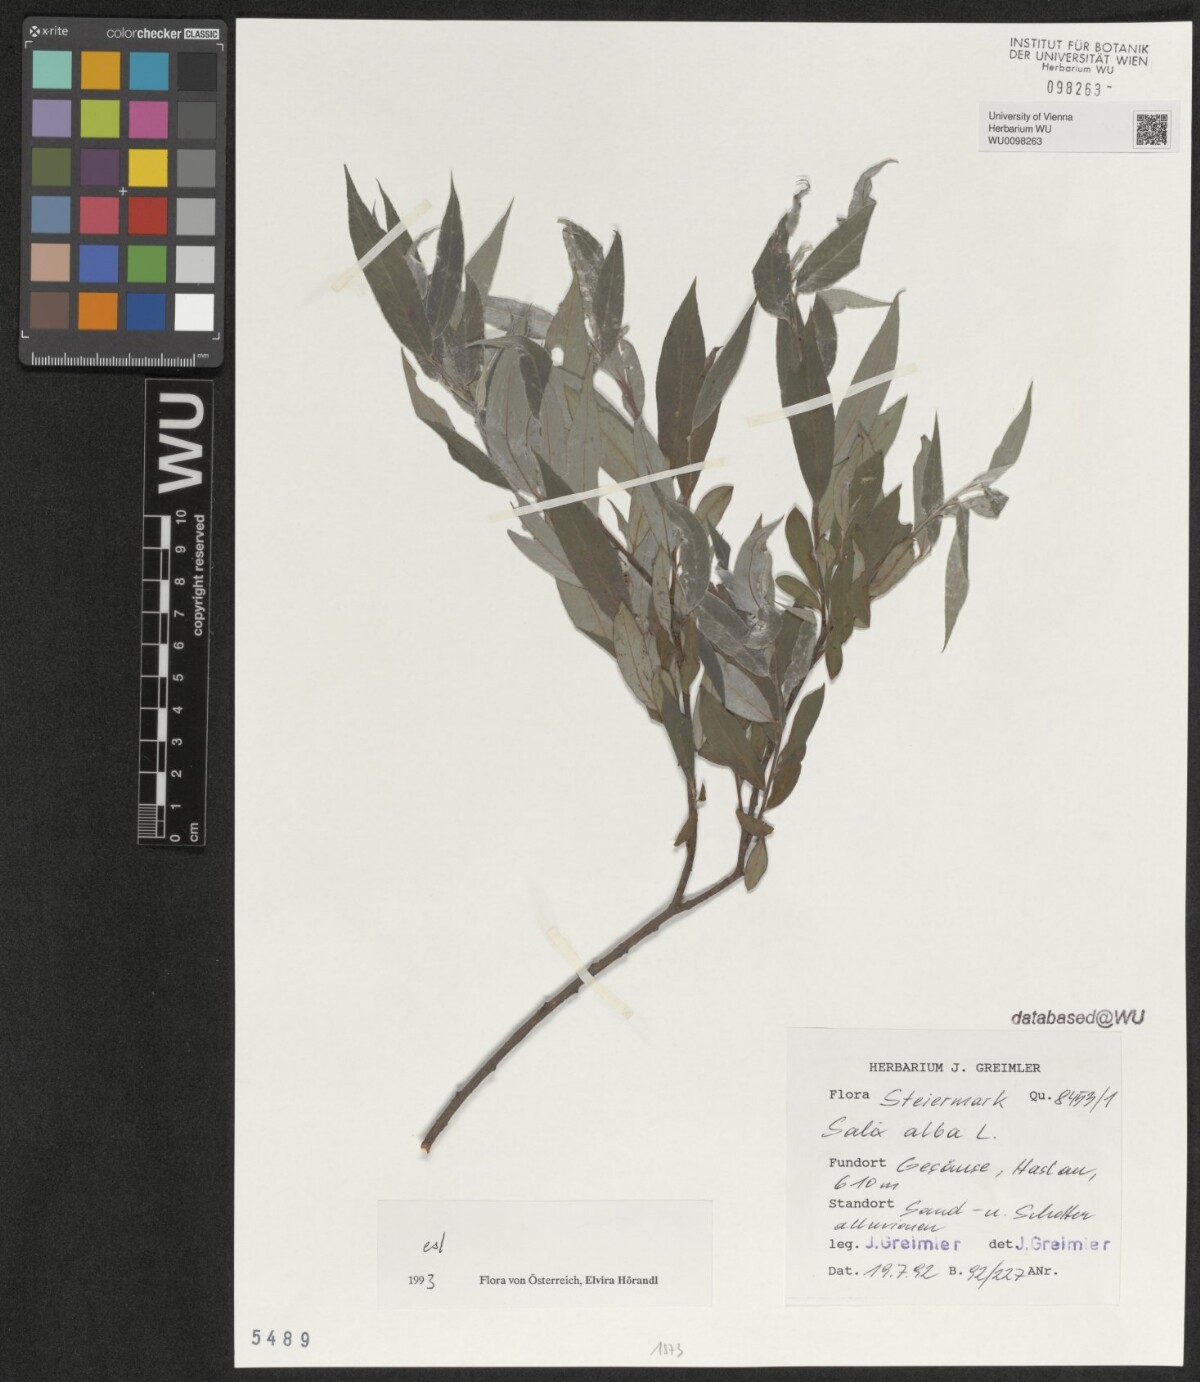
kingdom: Plantae
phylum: Tracheophyta
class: Magnoliopsida
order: Malpighiales
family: Salicaceae
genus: Salix
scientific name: Salix alba
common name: White willow
